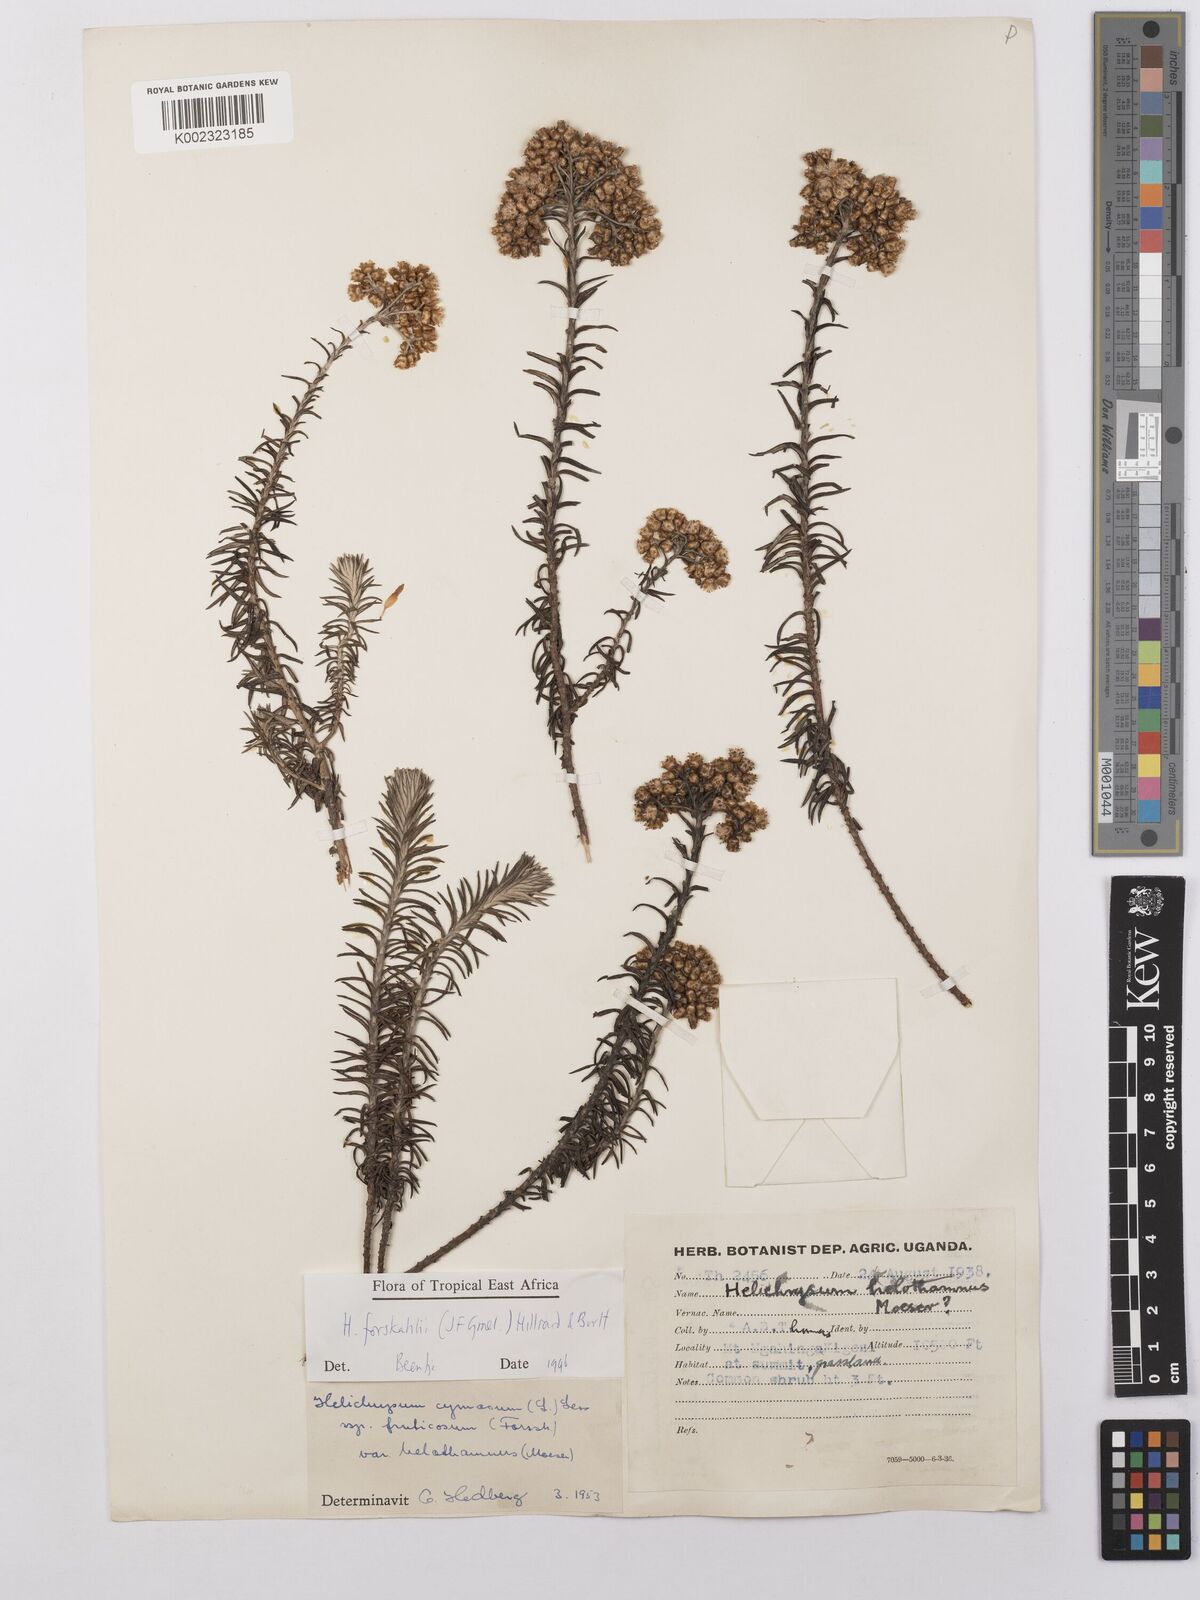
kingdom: Plantae
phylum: Tracheophyta
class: Magnoliopsida
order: Asterales
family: Asteraceae
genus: Helichrysum
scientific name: Helichrysum forskahlii
